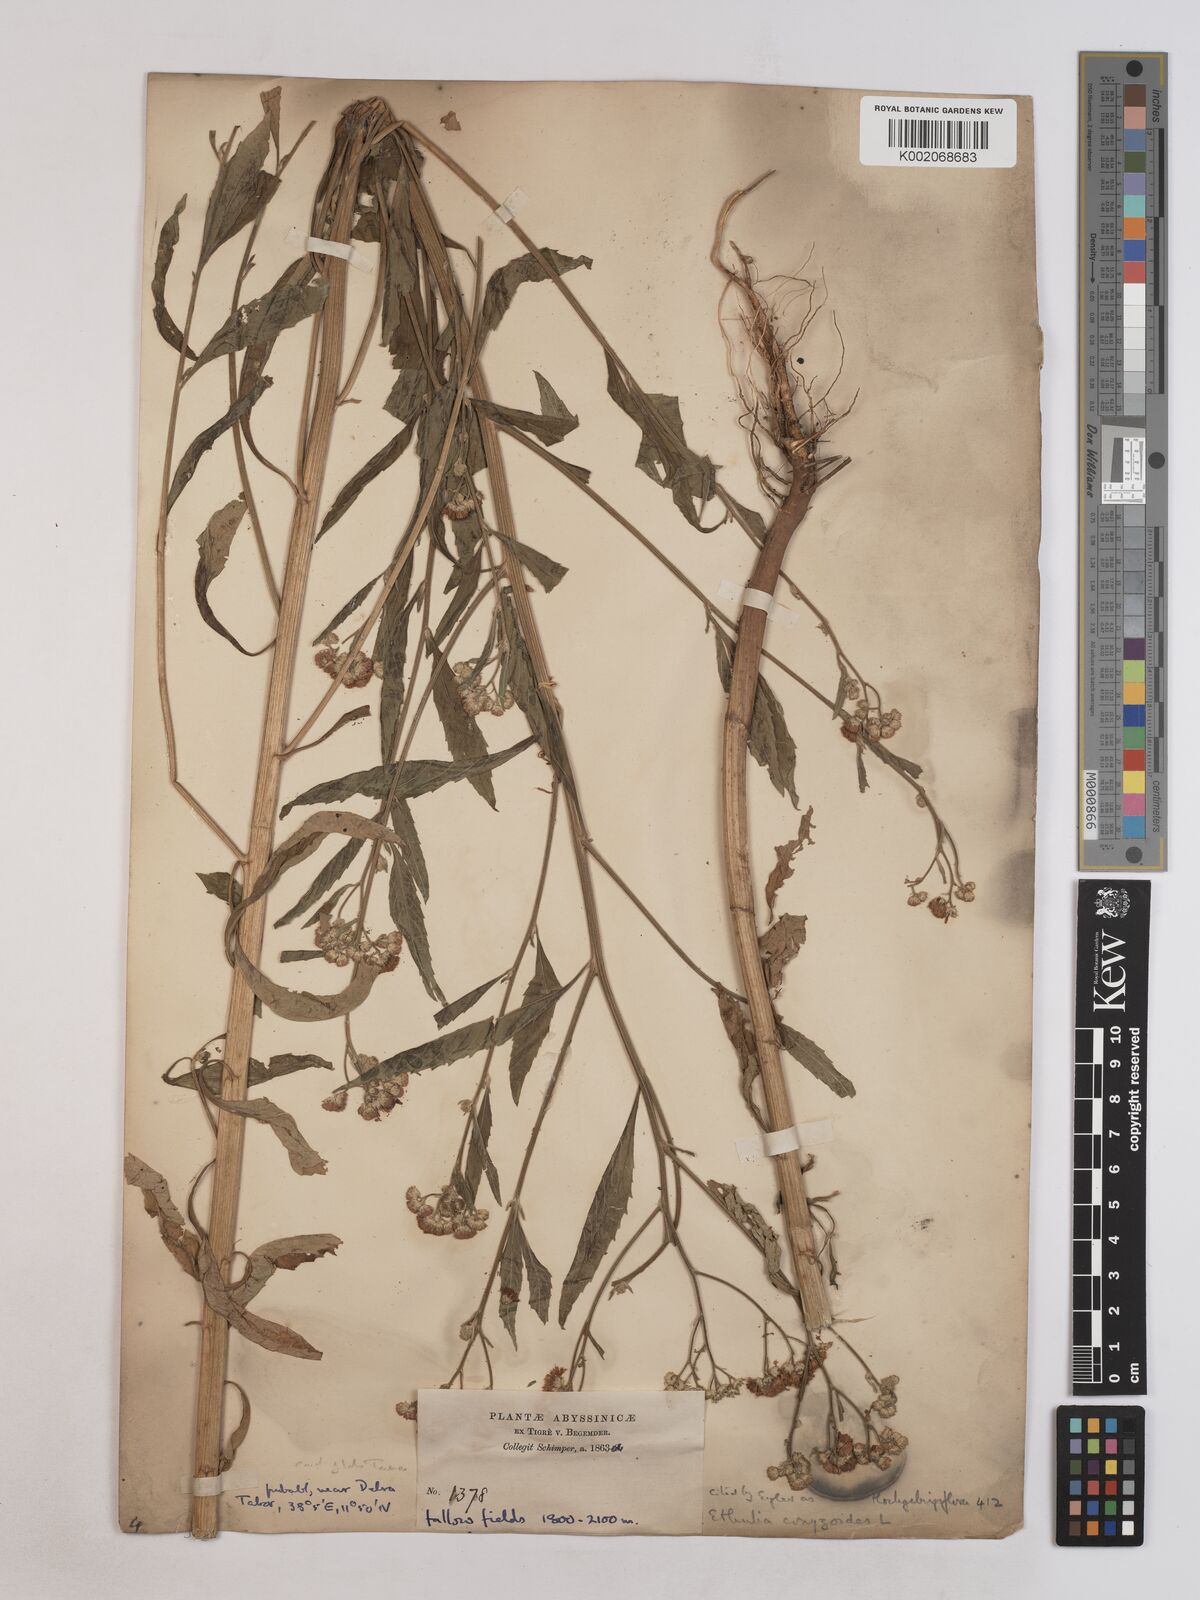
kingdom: Plantae
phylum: Tracheophyta
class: Magnoliopsida
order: Asterales
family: Asteraceae
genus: Ethulia
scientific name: Ethulia gracilis
